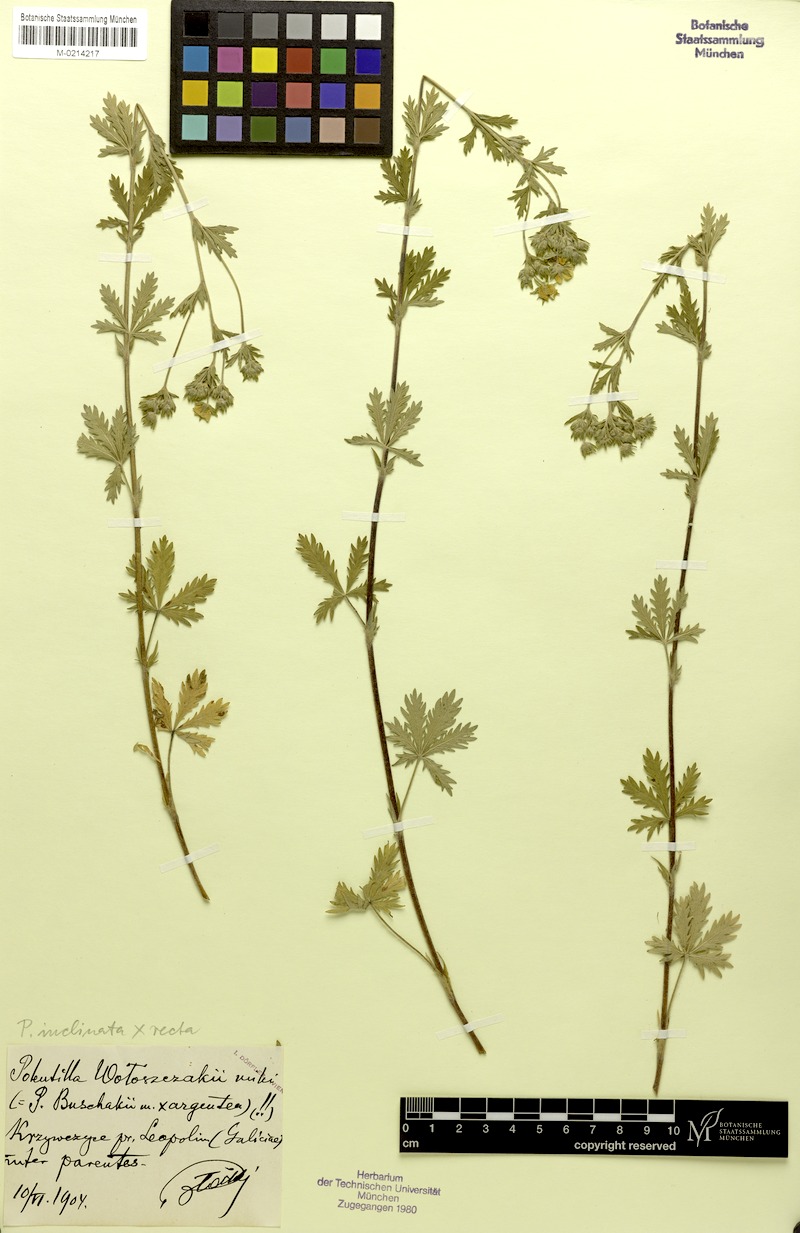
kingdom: Plantae
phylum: Tracheophyta
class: Magnoliopsida
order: Rosales
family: Rosaceae
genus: Potentilla
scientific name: Potentilla
